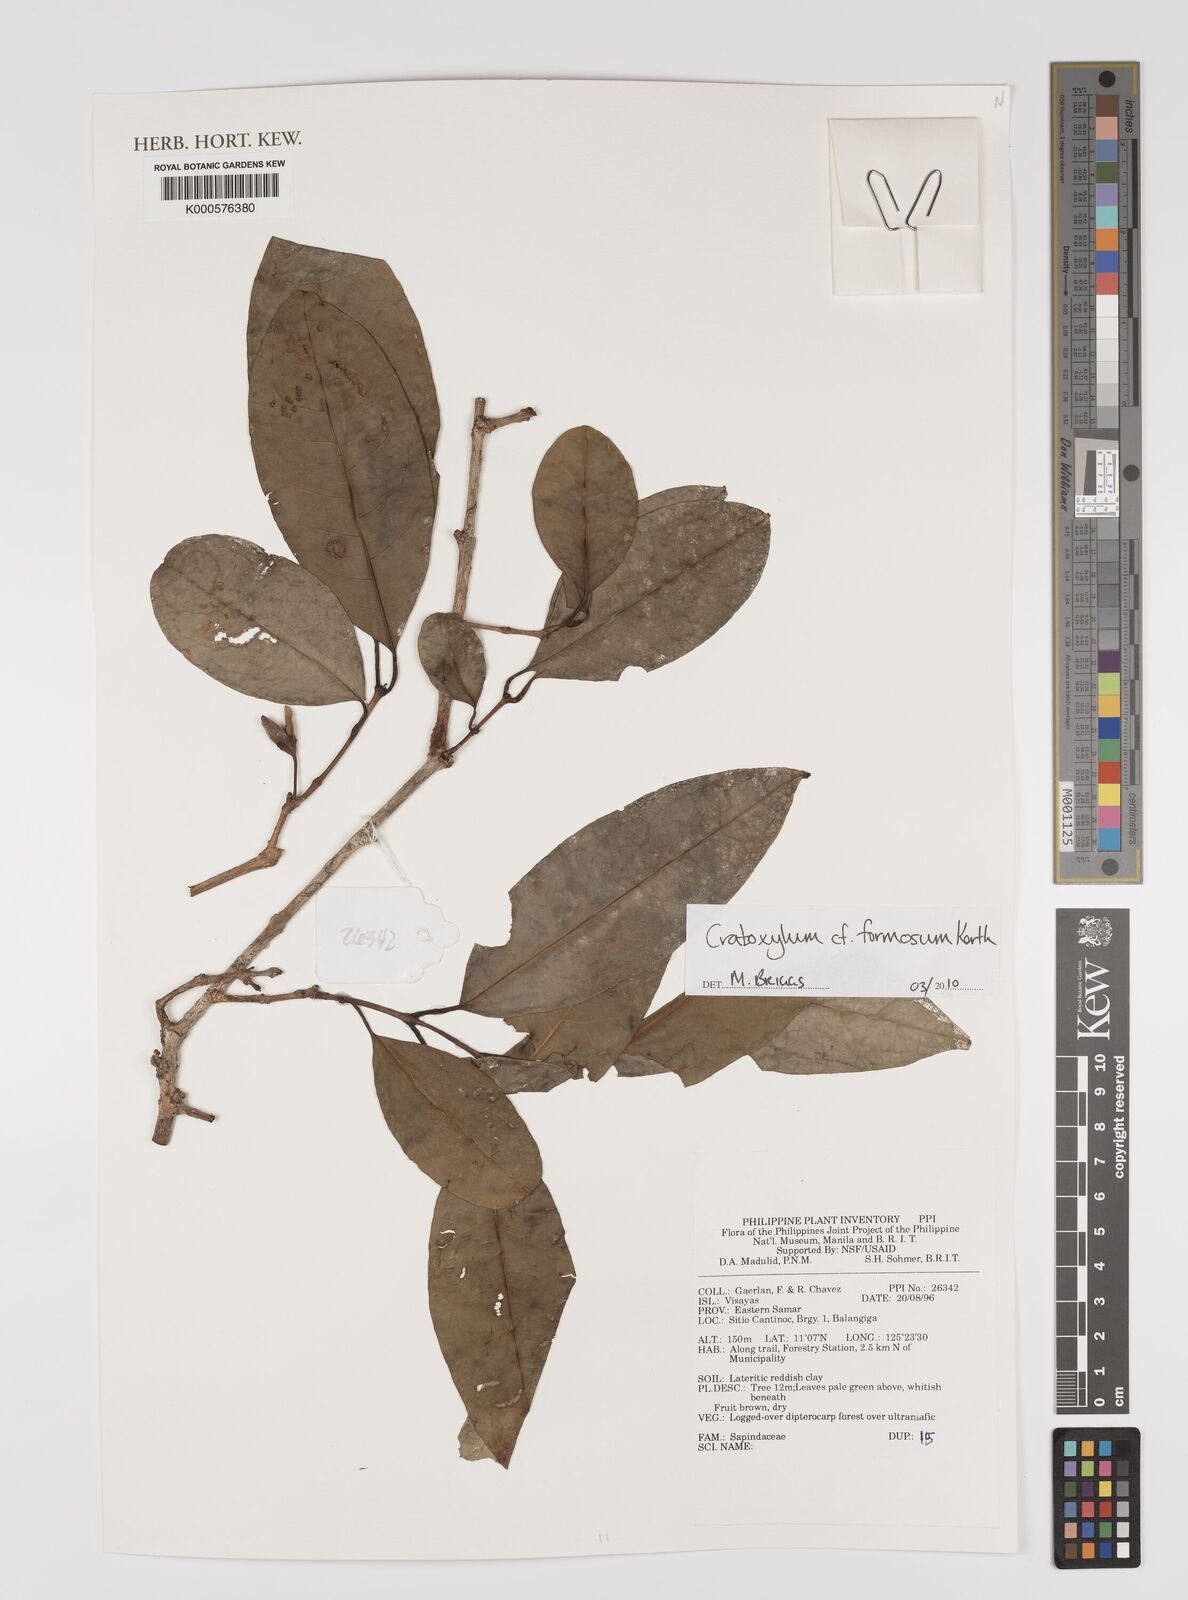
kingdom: Plantae
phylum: Tracheophyta
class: Magnoliopsida
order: Malpighiales
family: Hypericaceae
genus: Cratoxylum
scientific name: Cratoxylum formosum
